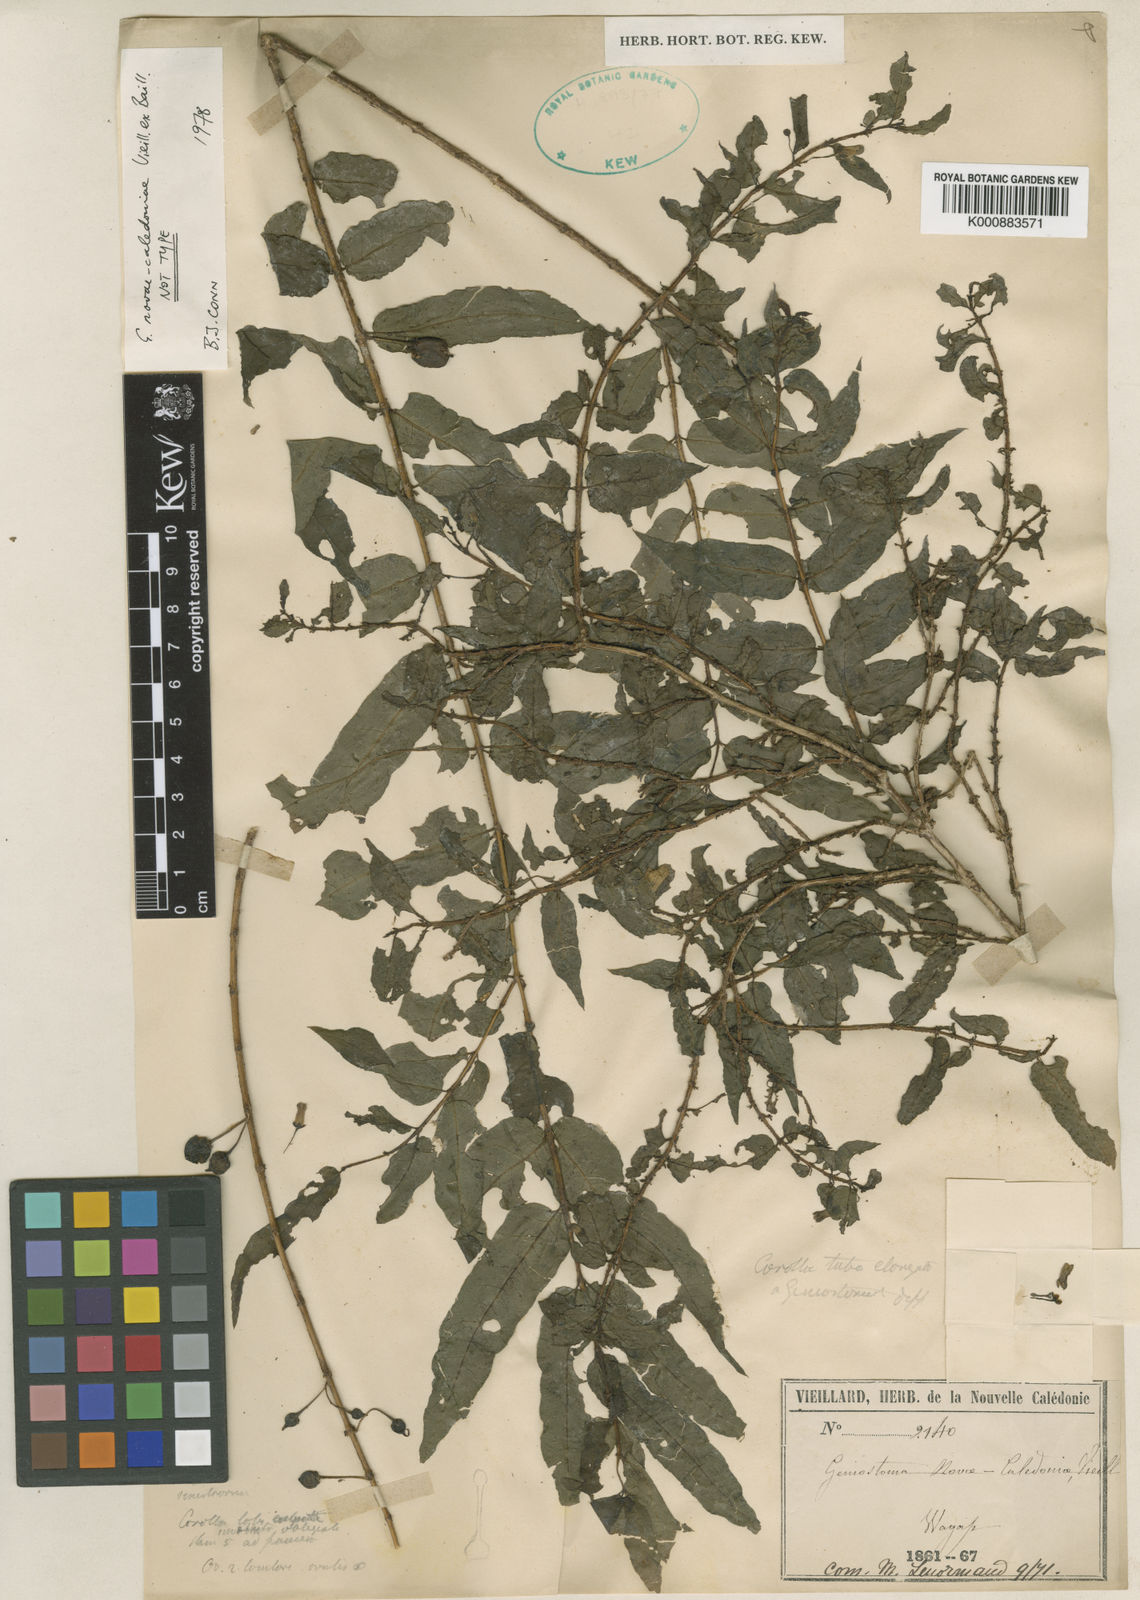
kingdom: Plantae
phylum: Tracheophyta
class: Magnoliopsida
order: Gentianales
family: Loganiaceae
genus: Geniostoma
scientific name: Geniostoma novae-caledoniae
